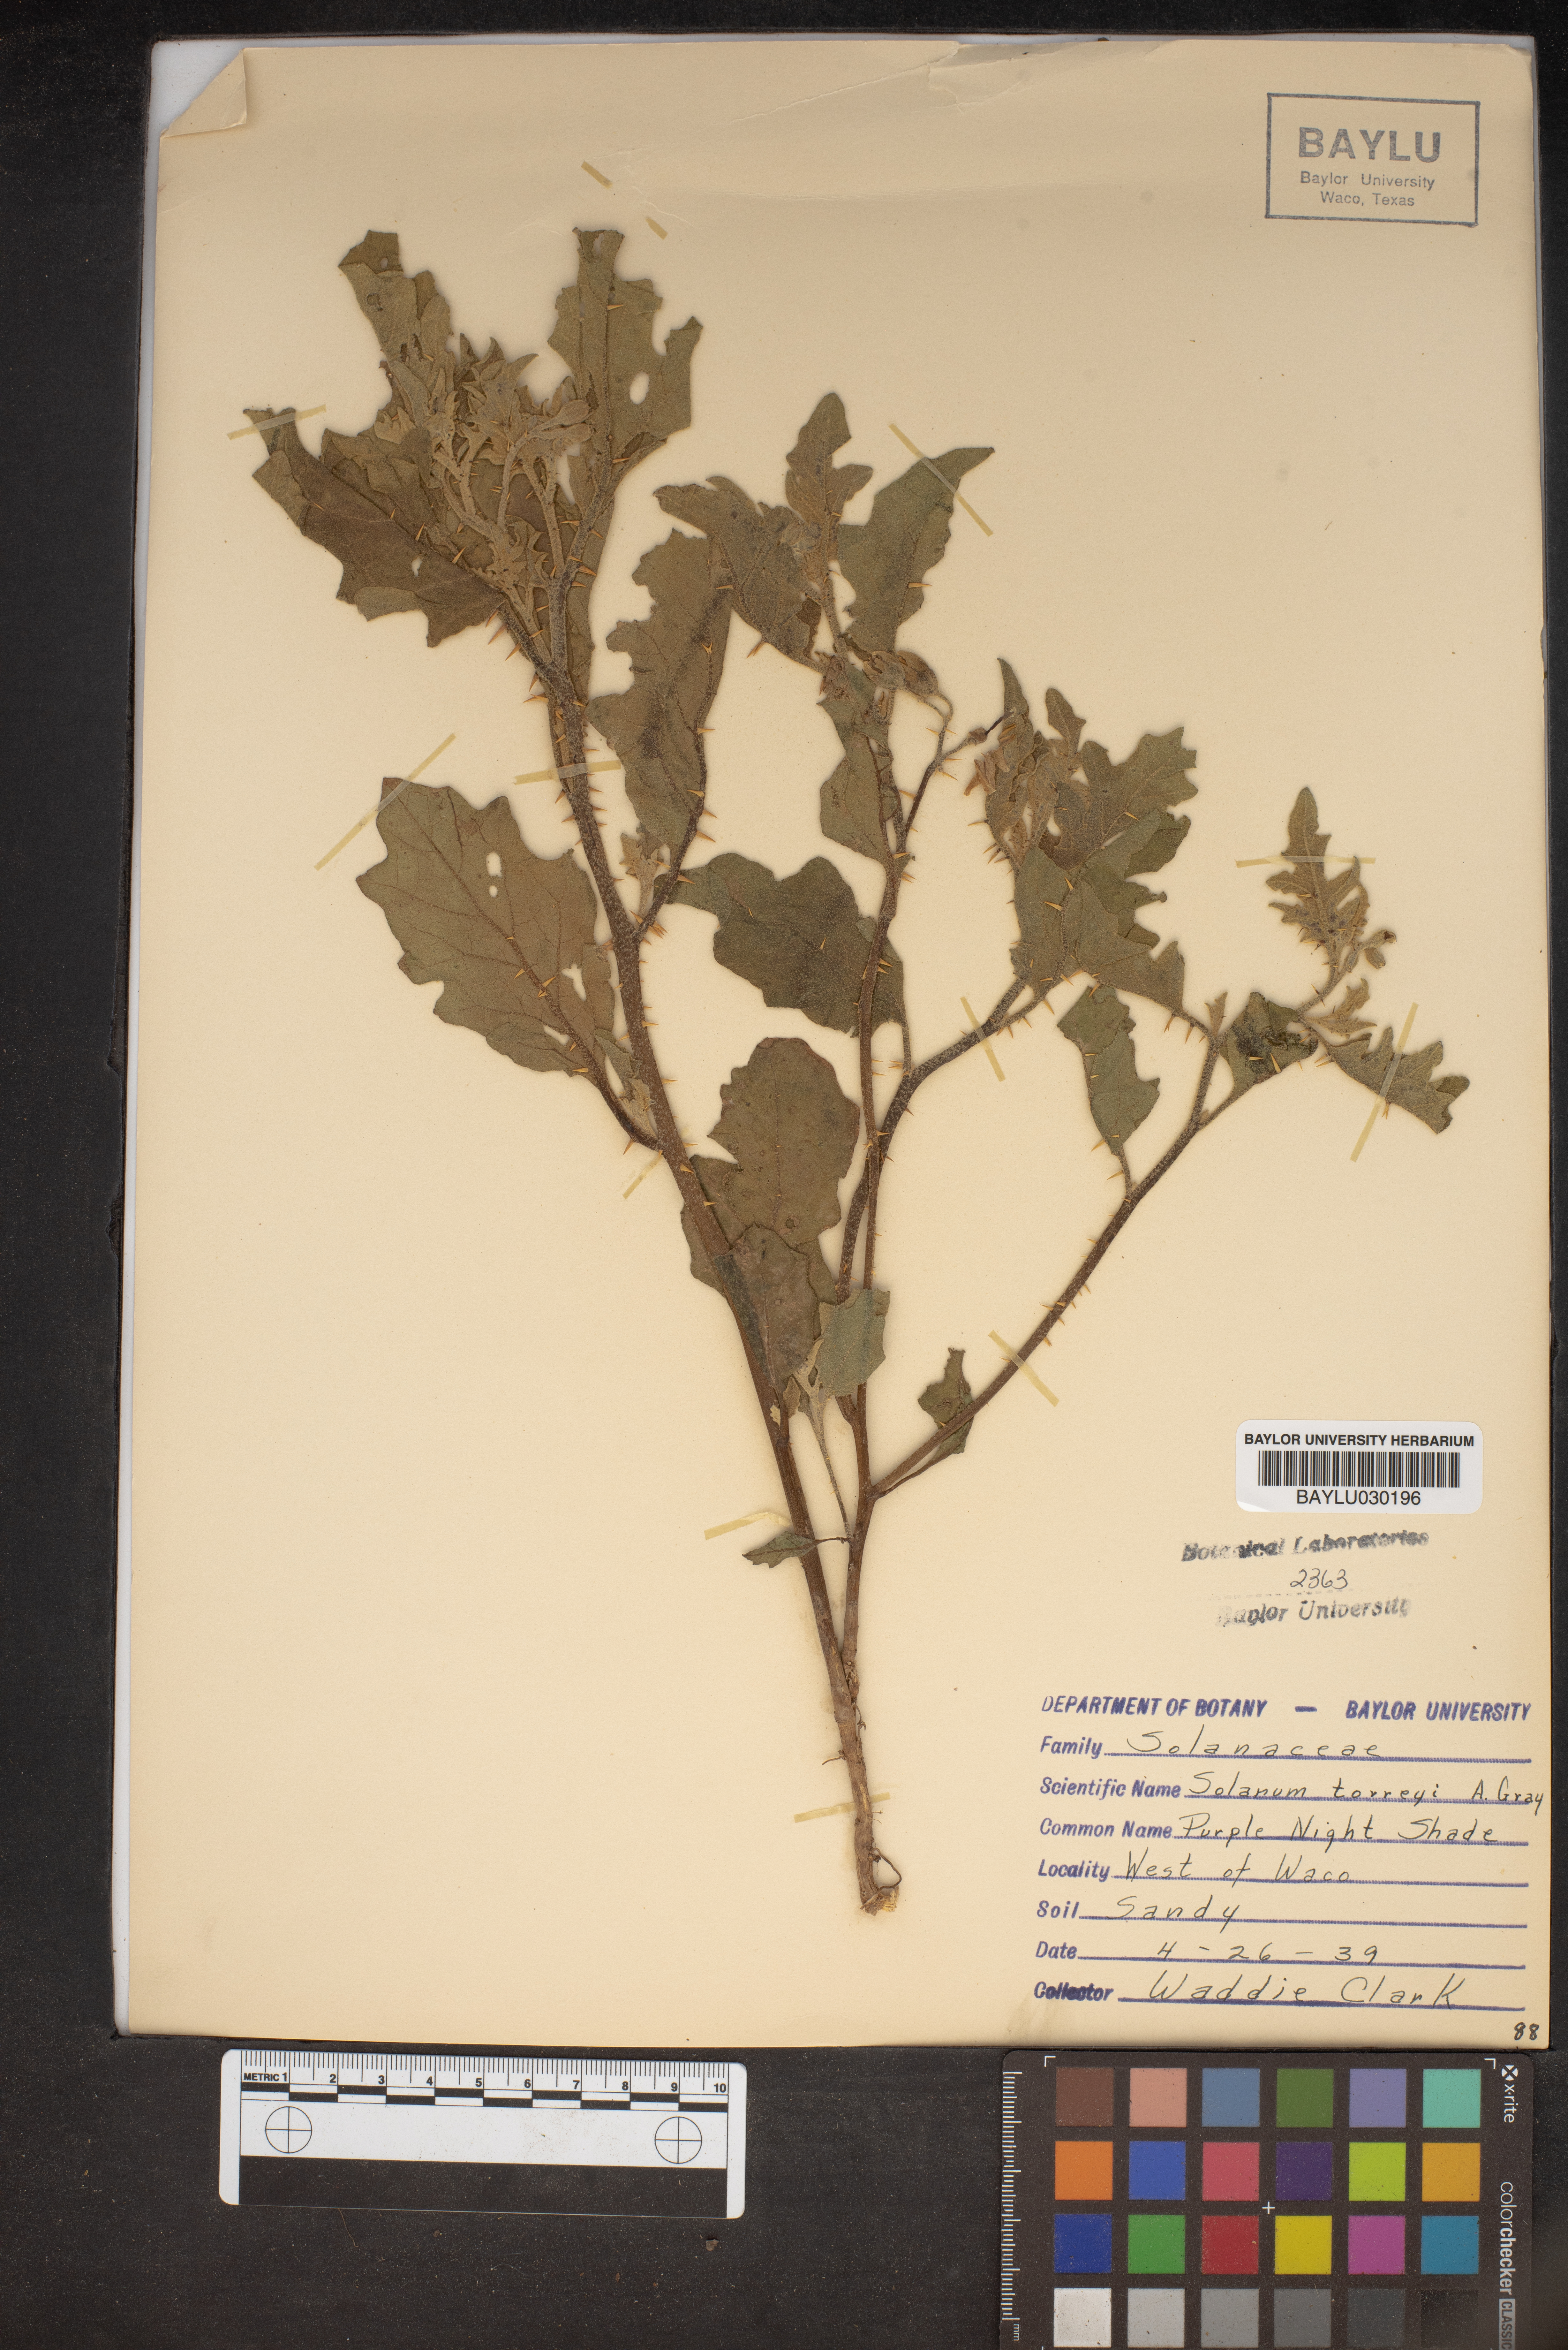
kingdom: Plantae
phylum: Tracheophyta
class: Magnoliopsida
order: Solanales
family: Solanaceae
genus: Solanum
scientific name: Solanum dimidiatum
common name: Carolina horse-nettle
